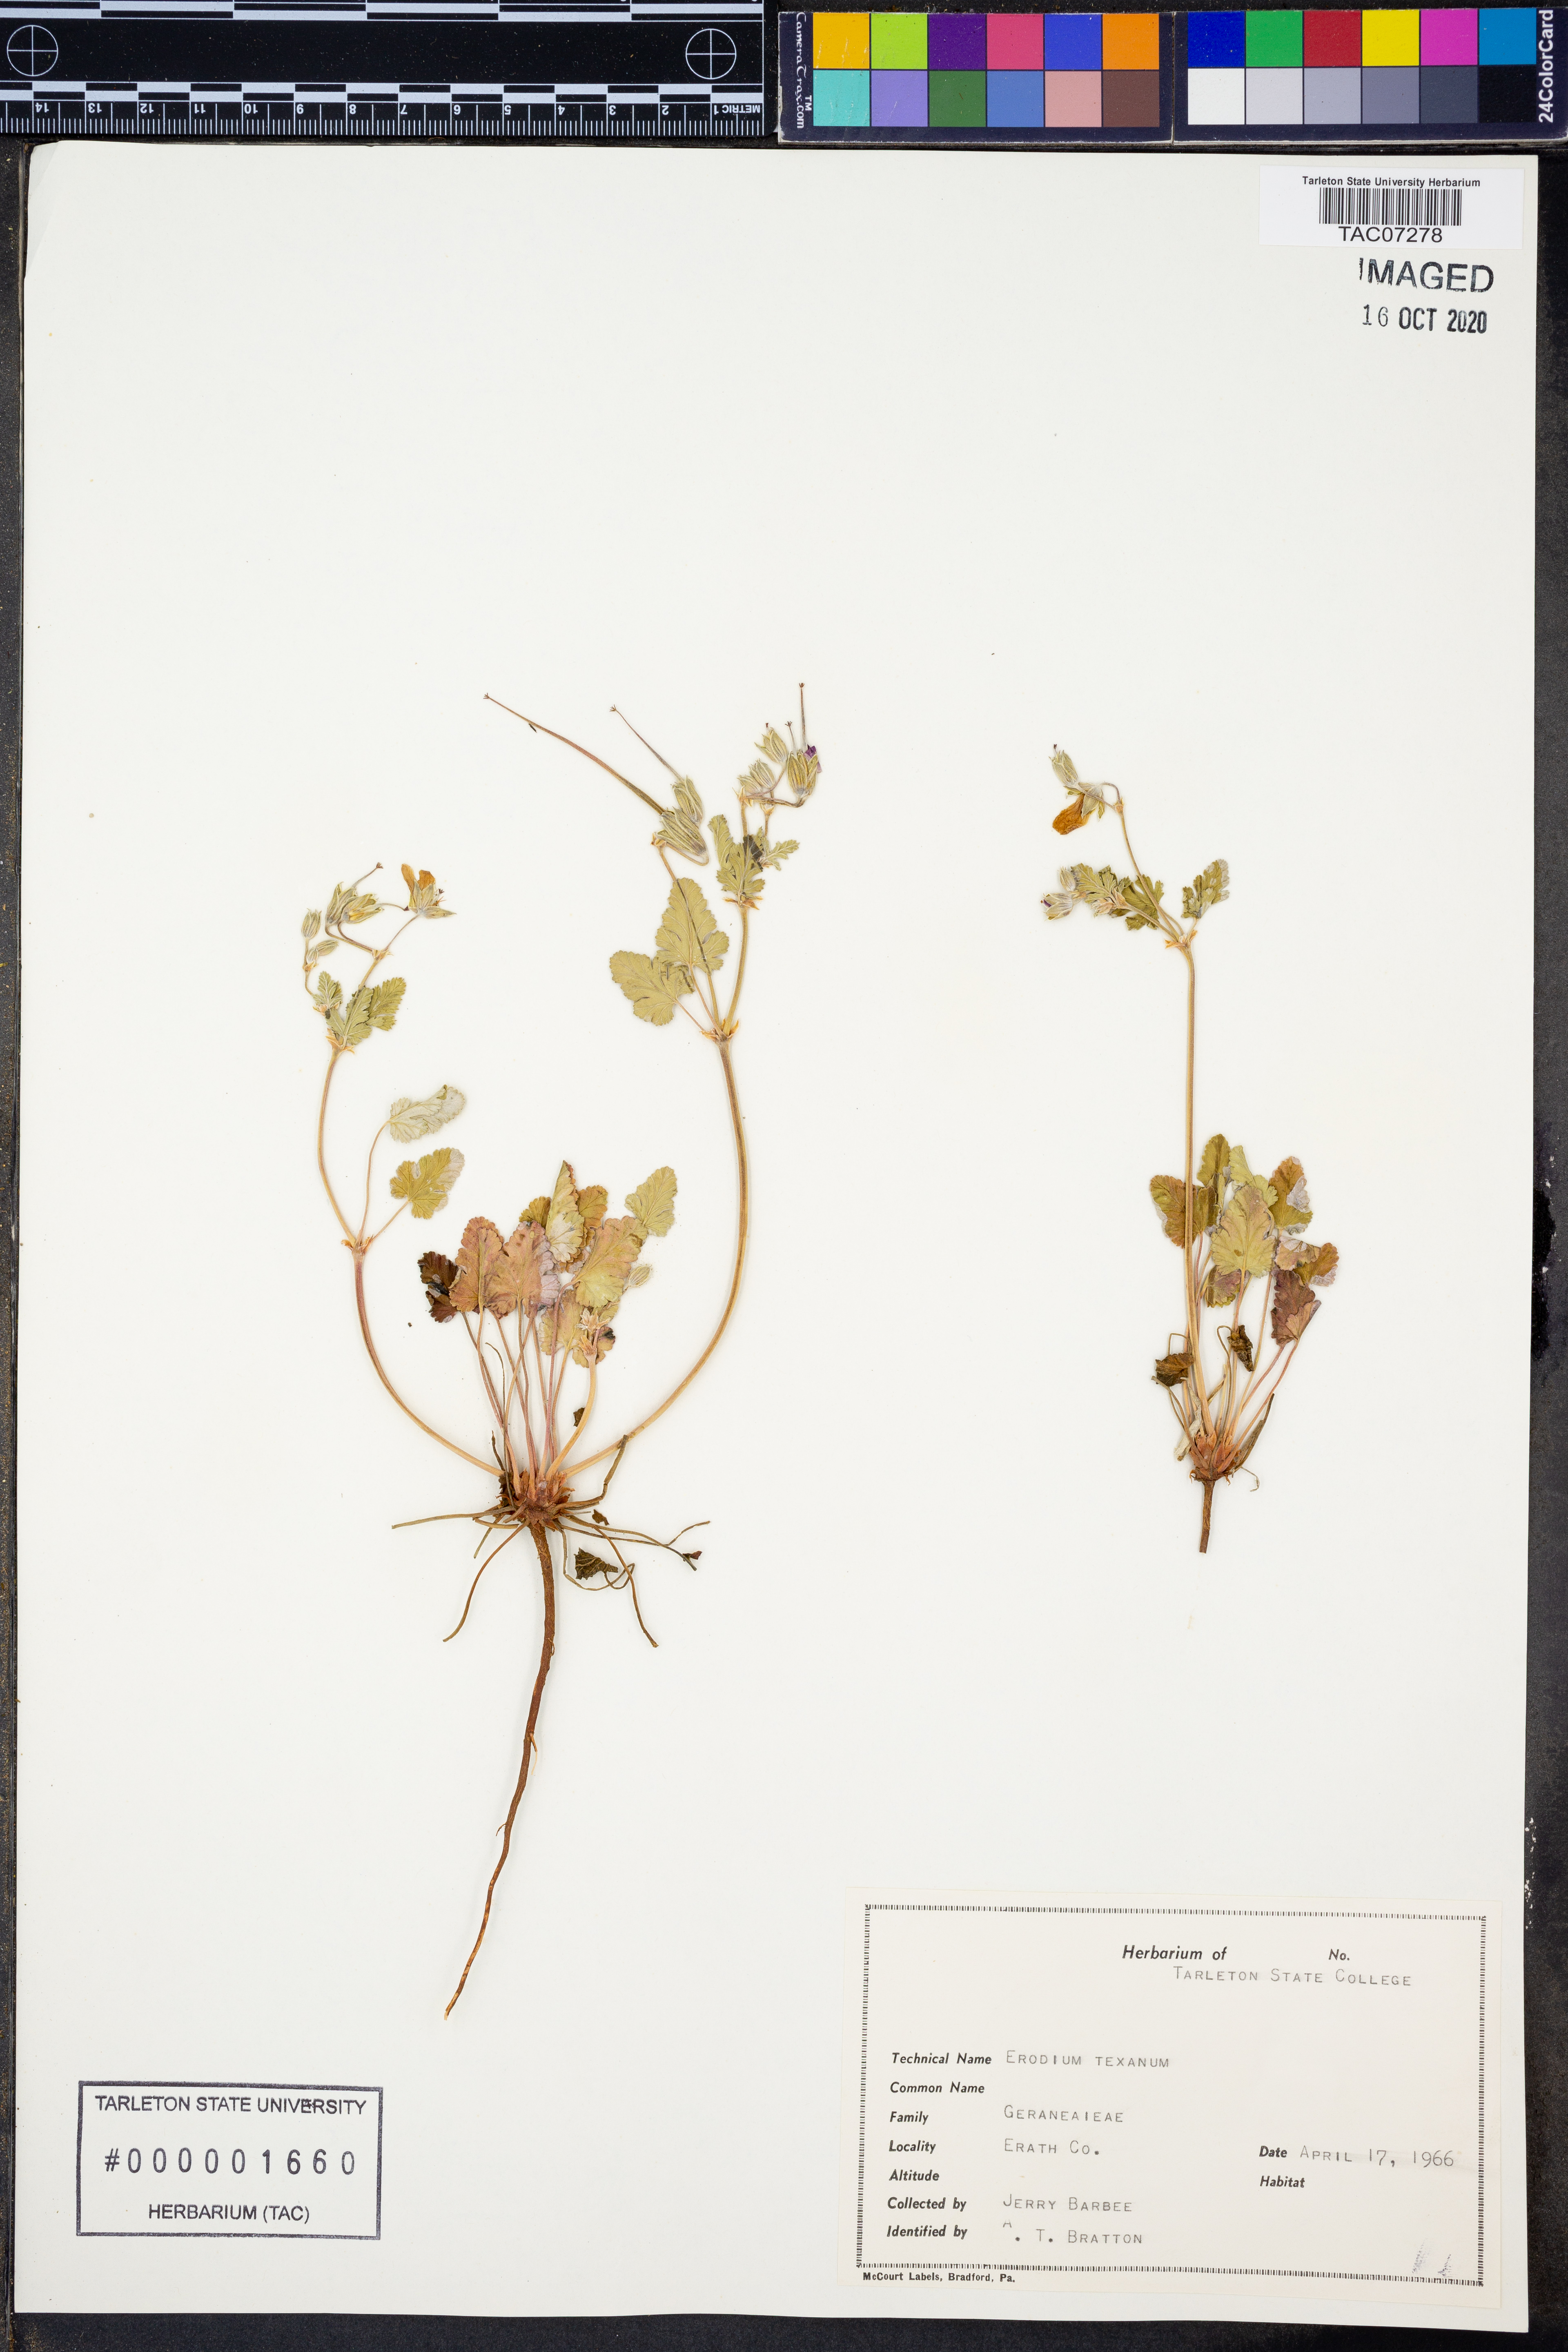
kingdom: Plantae
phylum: Tracheophyta
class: Magnoliopsida
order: Geraniales
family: Geraniaceae
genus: Erodium
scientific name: Erodium texanum
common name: Texas stork's-bill
